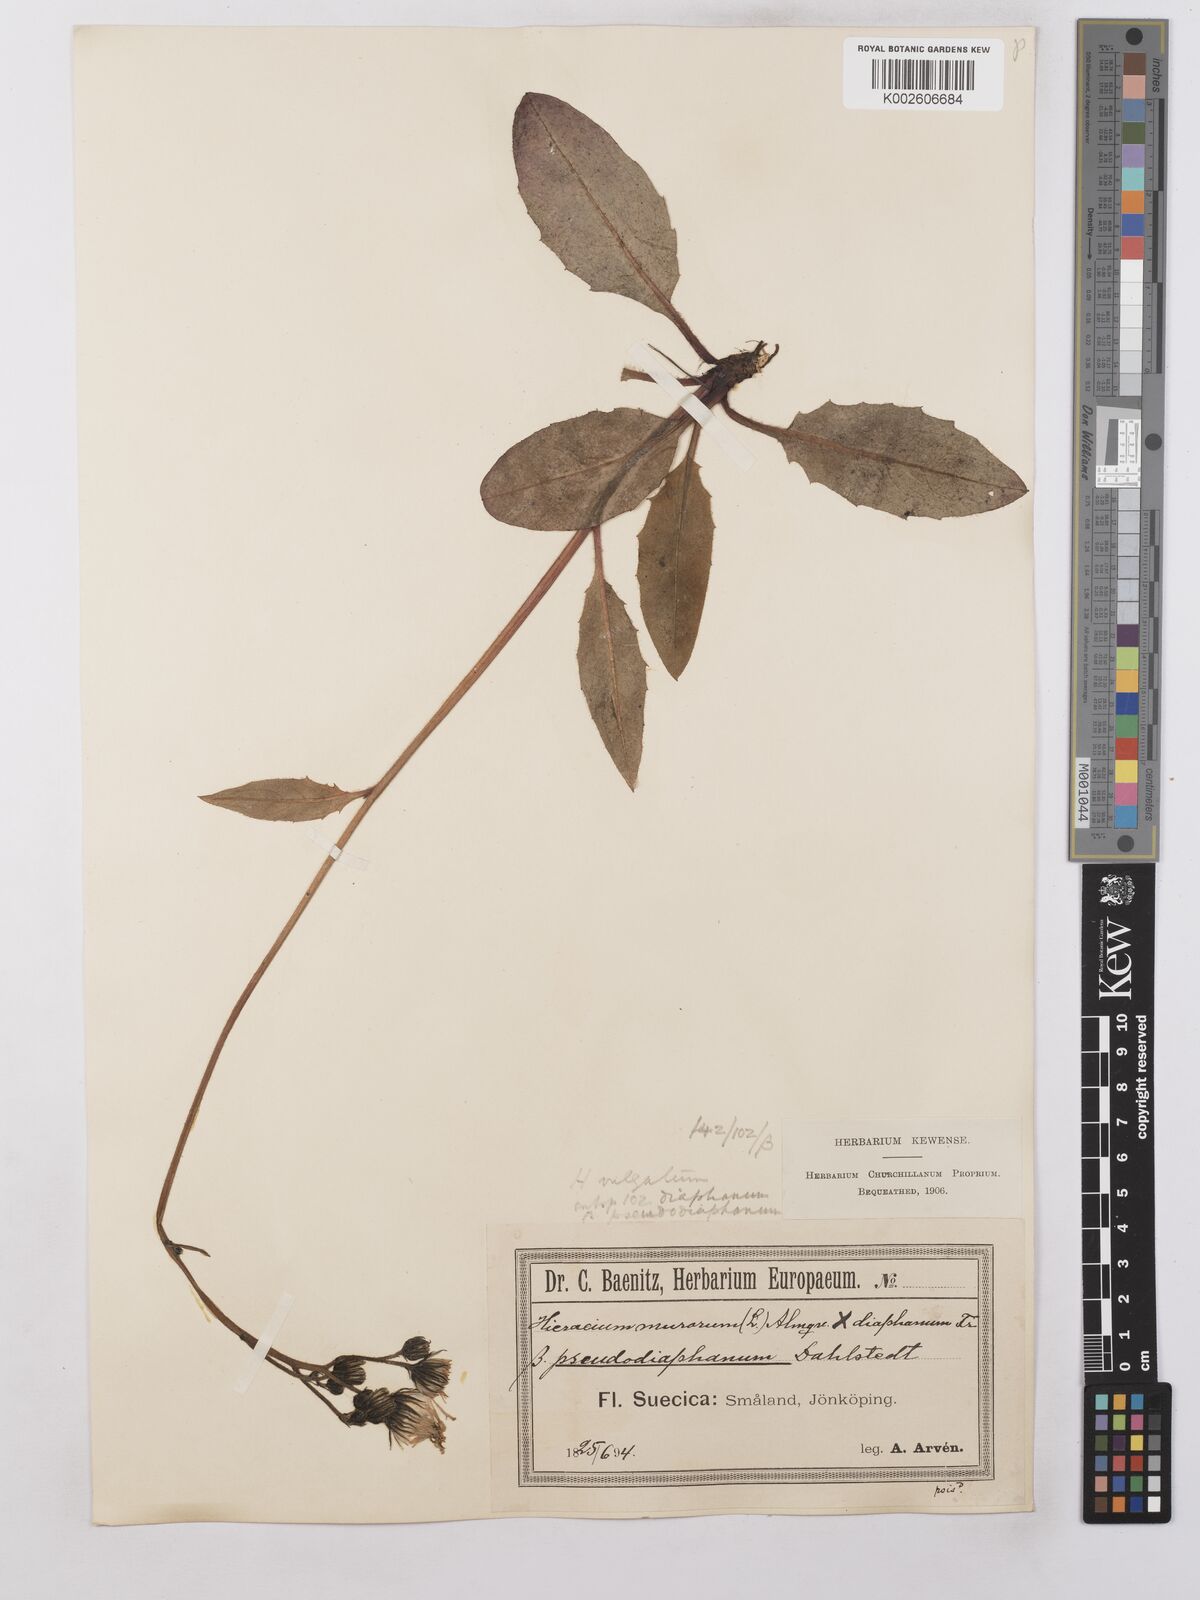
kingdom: Plantae
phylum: Tracheophyta
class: Magnoliopsida
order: Asterales
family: Asteraceae
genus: Hieracium
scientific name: Hieracium lachenalii
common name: Common hawkweed
